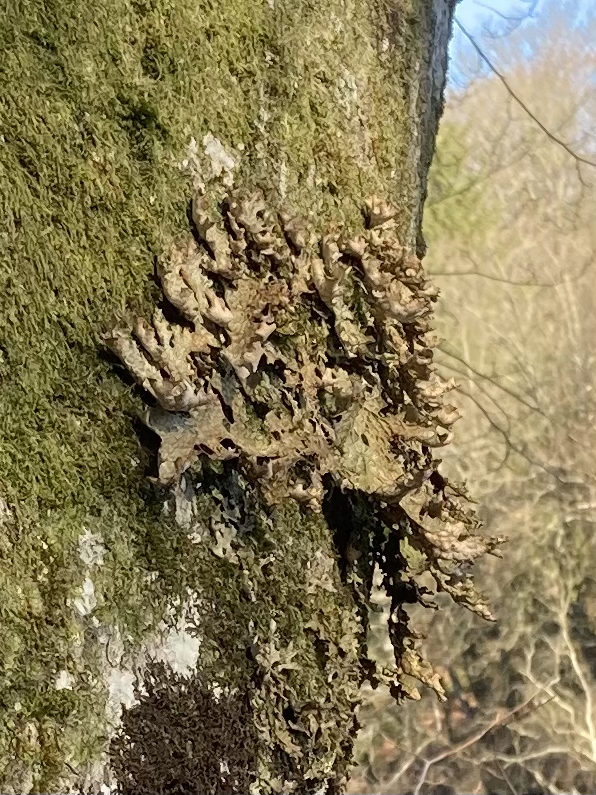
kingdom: Fungi
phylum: Ascomycota
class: Lecanoromycetes
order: Peltigerales
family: Lobariaceae
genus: Lobaria
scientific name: Lobaria pulmonaria
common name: almindelig lungelav
